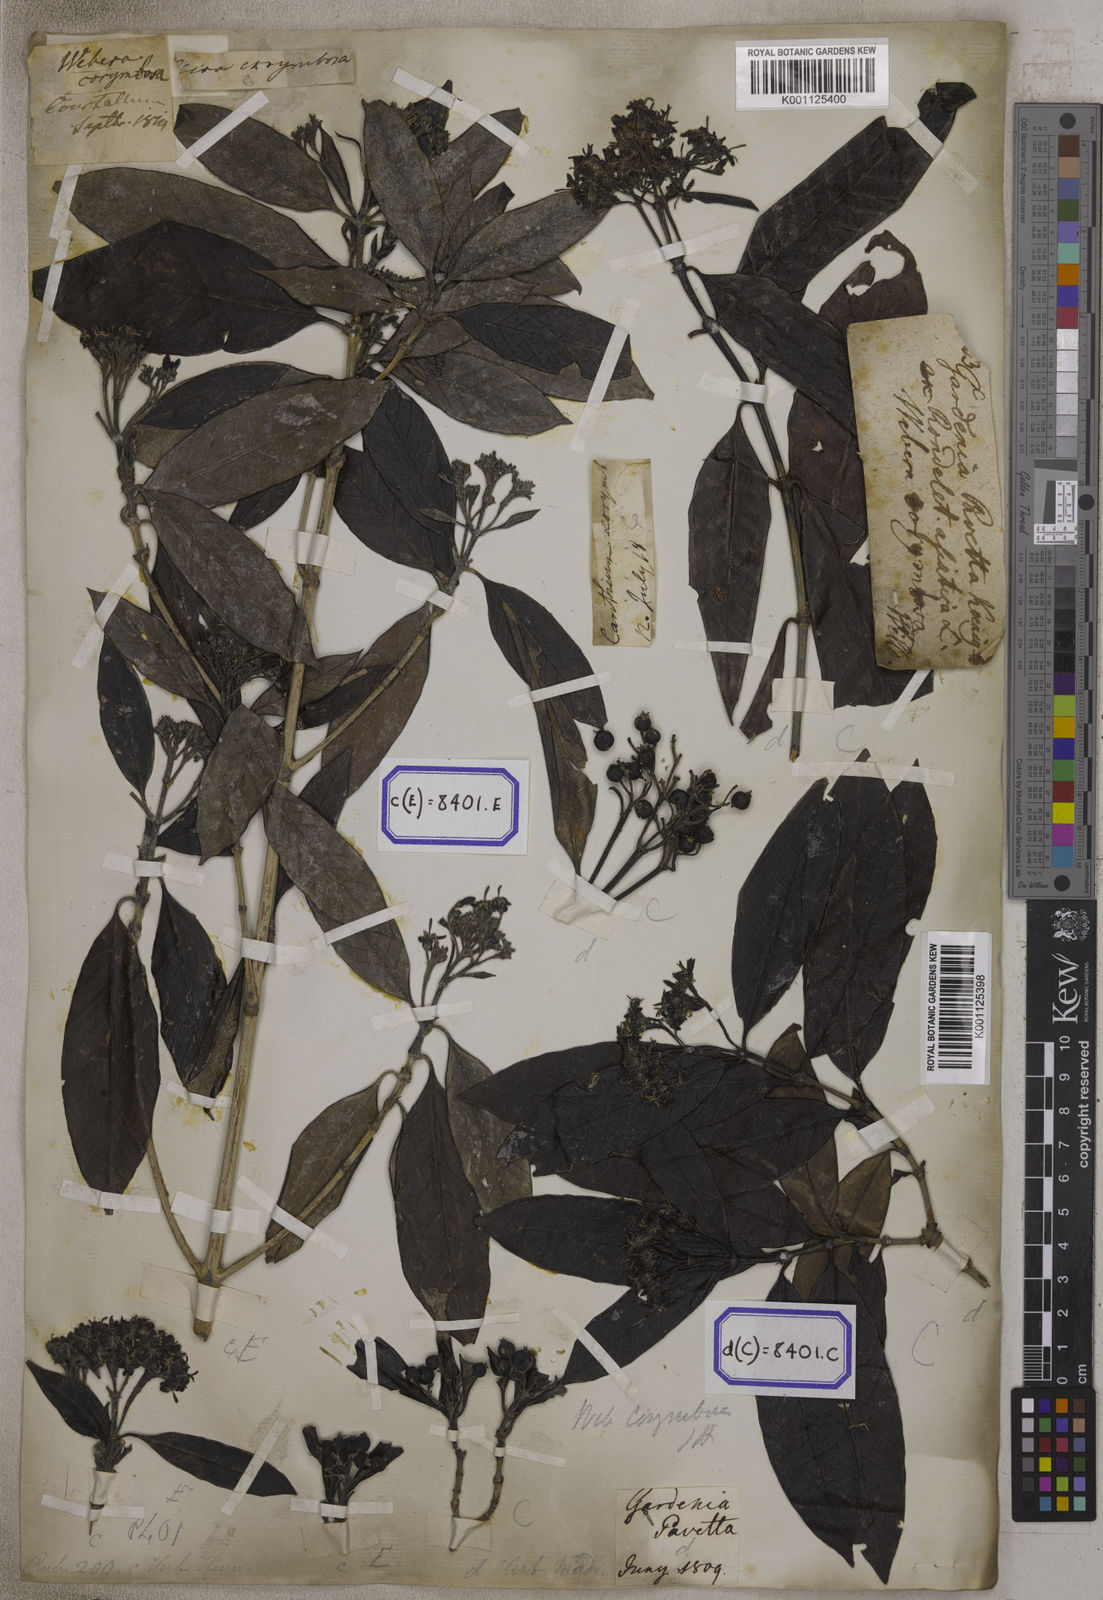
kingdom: Plantae
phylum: Tracheophyta
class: Magnoliopsida
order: Gentianales
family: Rubiaceae
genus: Tarenna
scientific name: Tarenna asiatica
